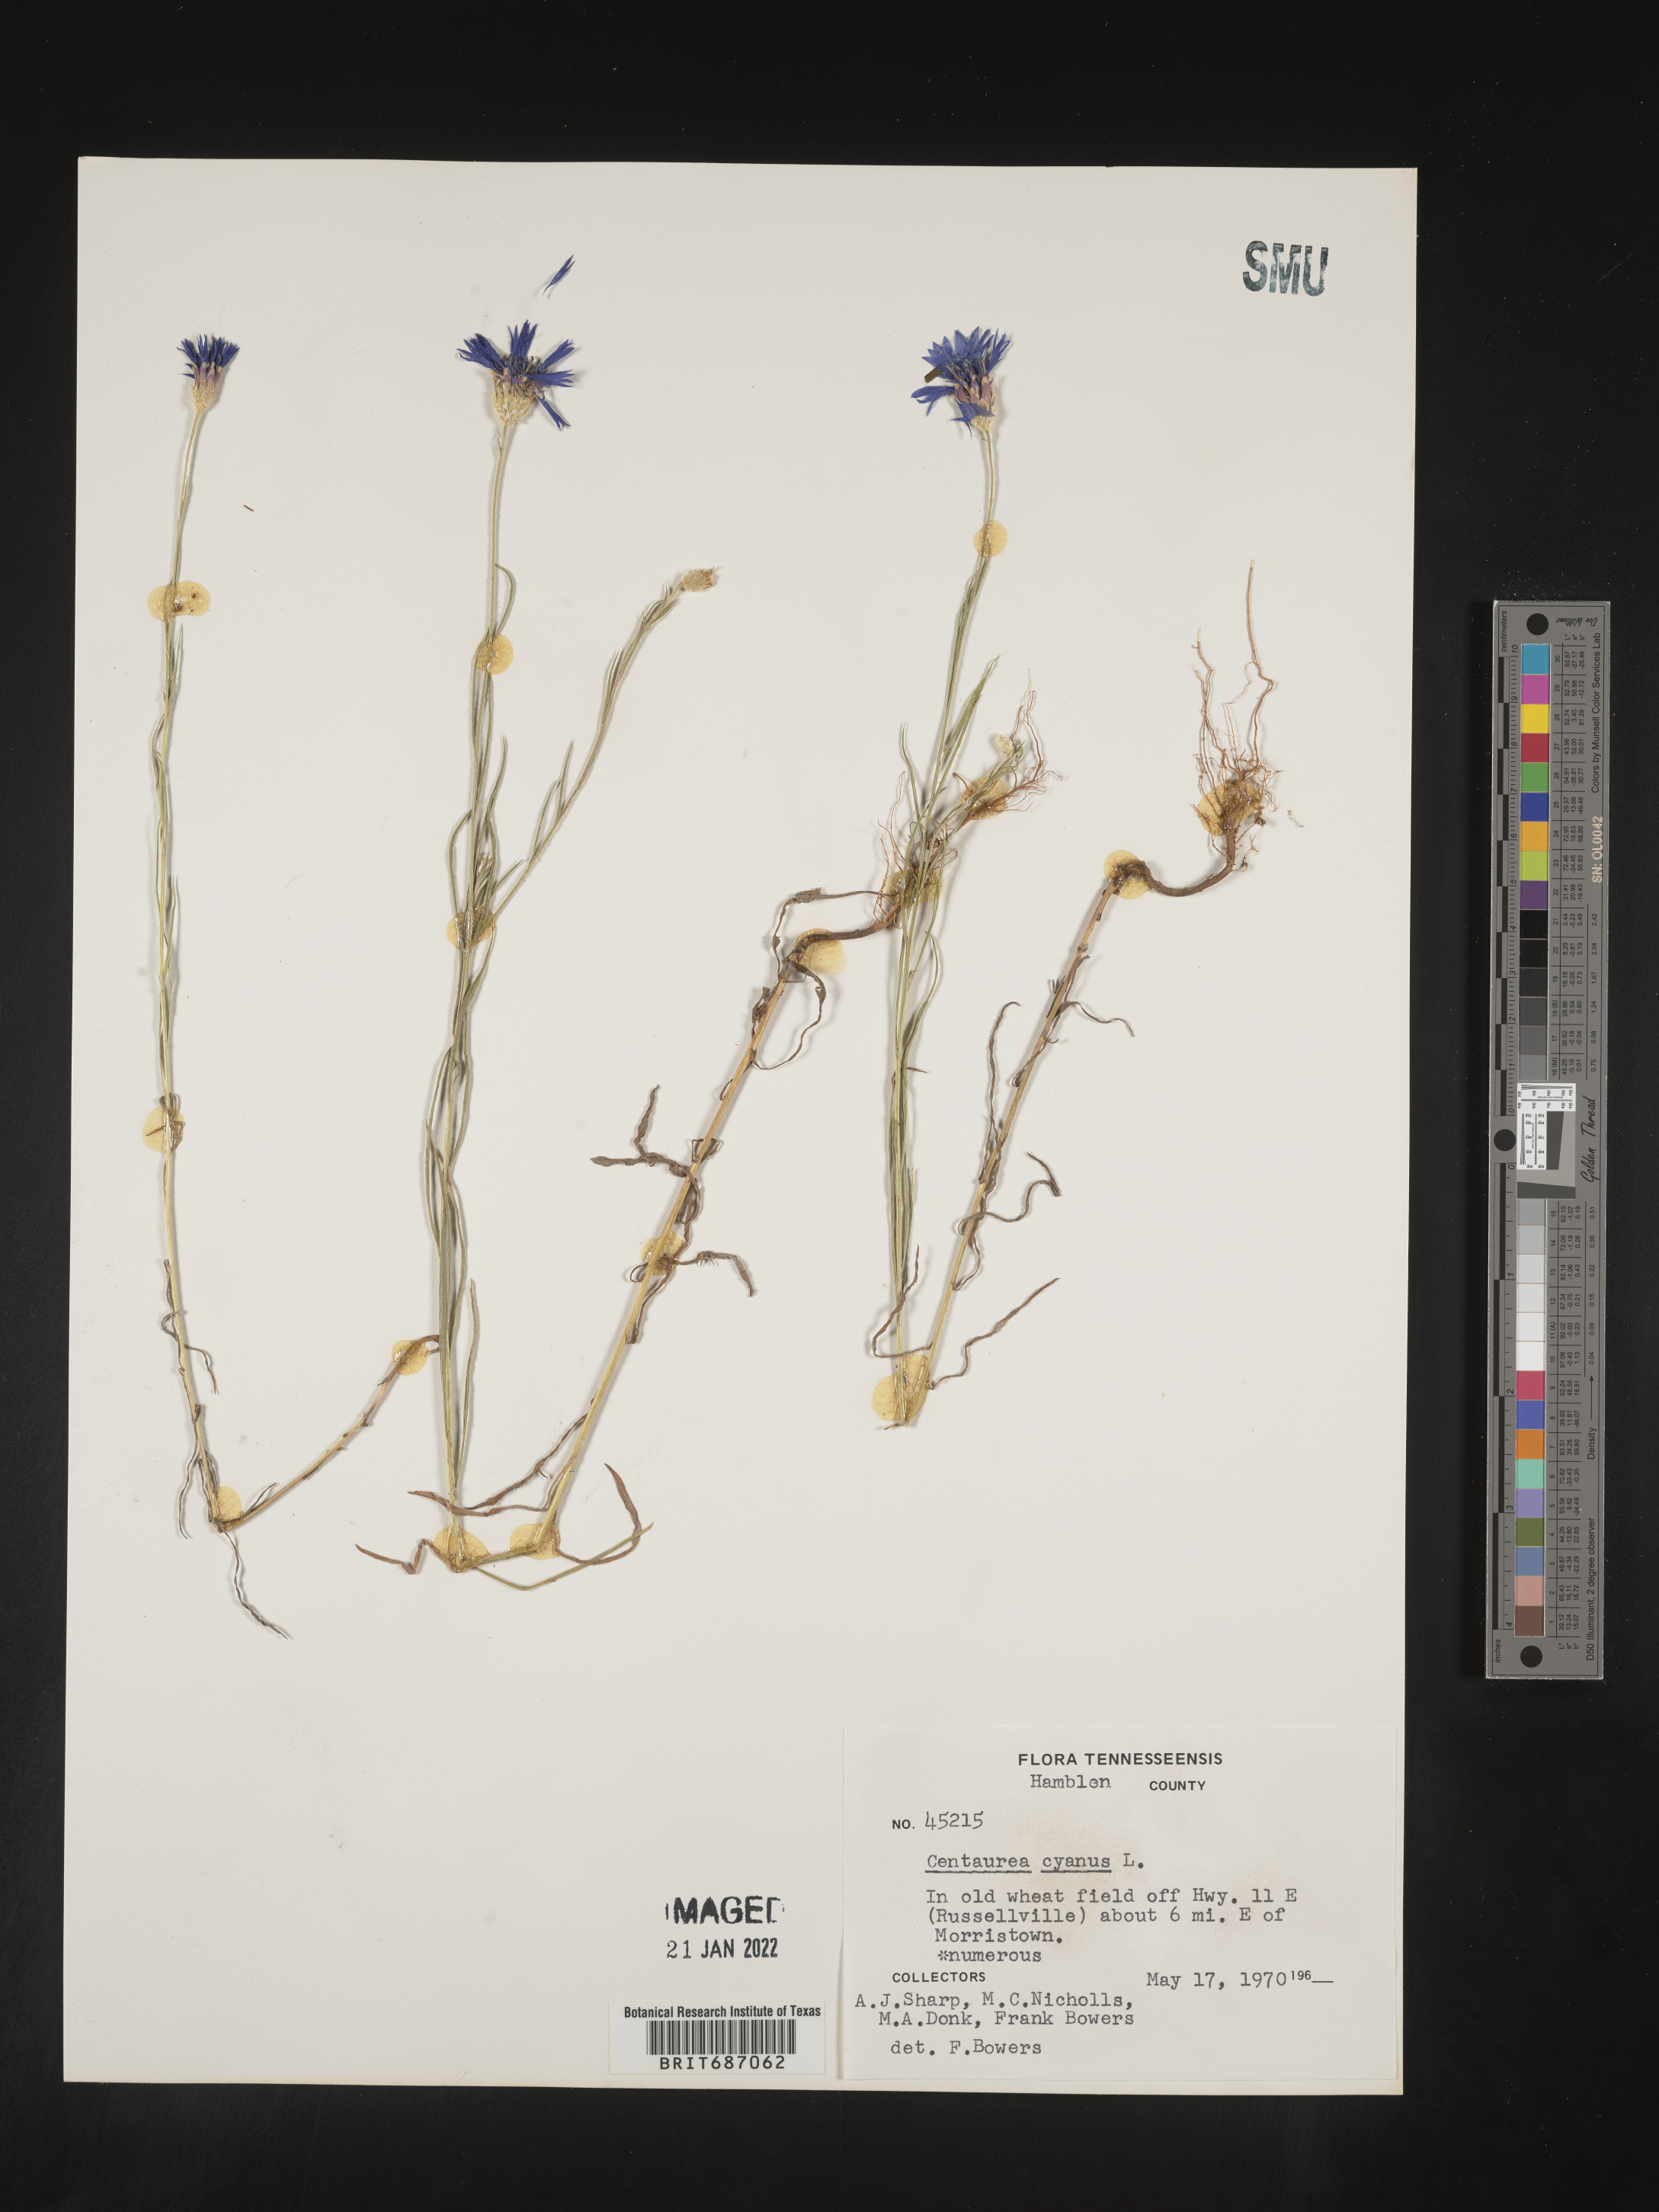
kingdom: Plantae
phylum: Tracheophyta
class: Magnoliopsida
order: Asterales
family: Asteraceae
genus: Centaurea
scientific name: Centaurea cyanus
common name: Cornflower
